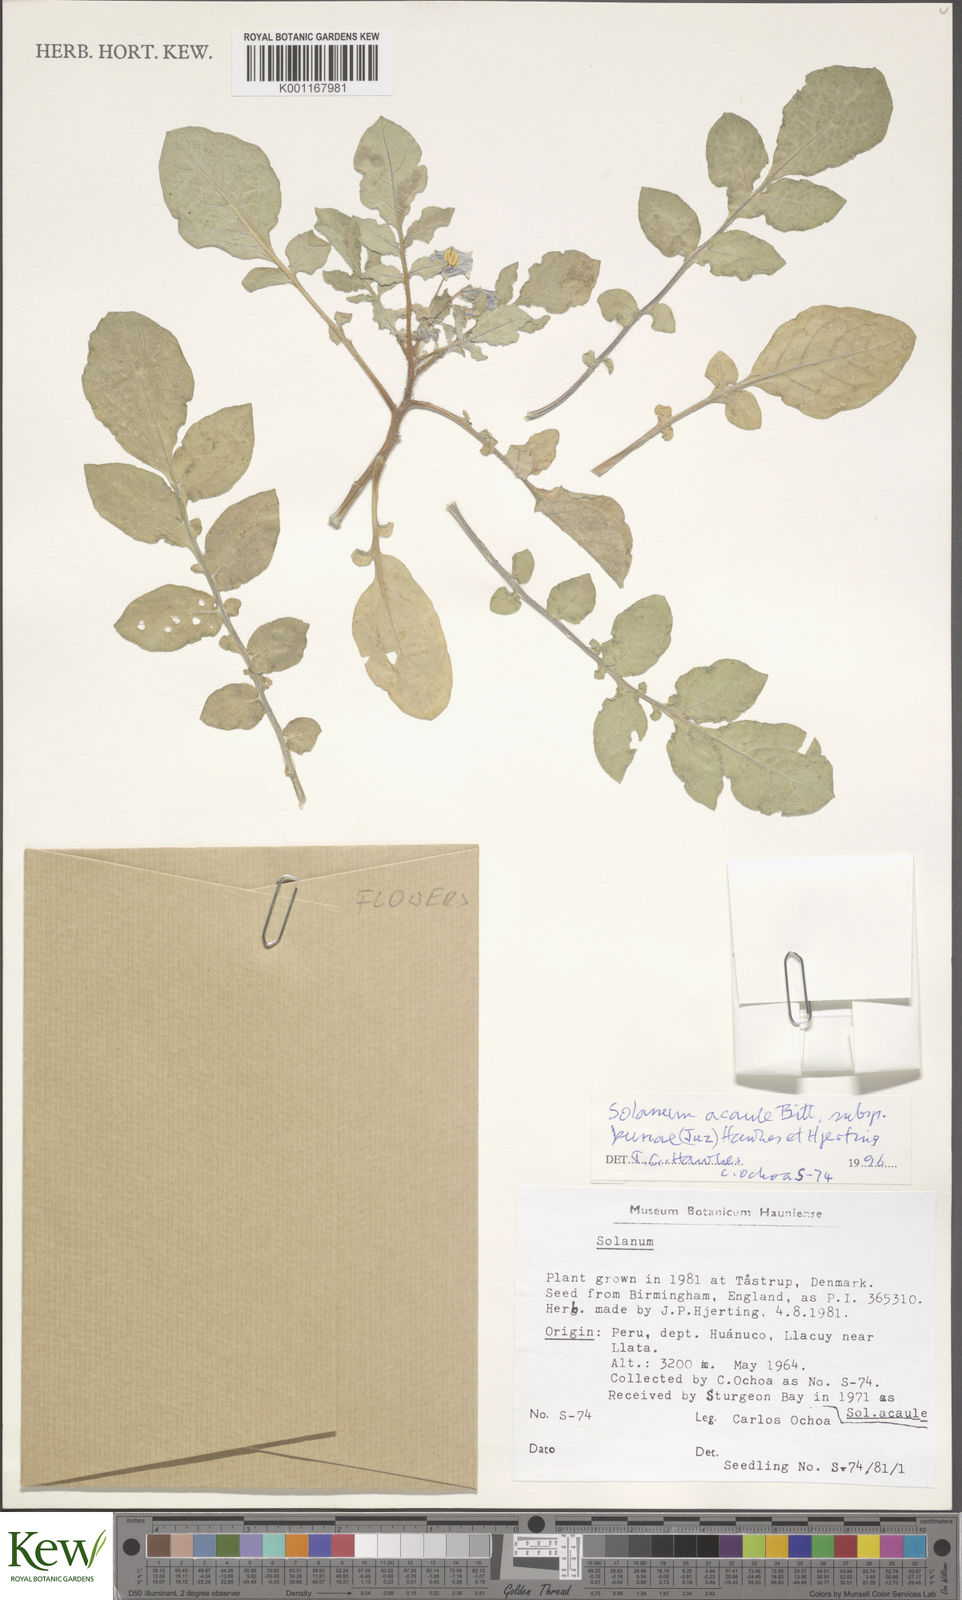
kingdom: Plantae
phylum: Tracheophyta
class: Magnoliopsida
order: Solanales
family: Solanaceae
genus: Solanum
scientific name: Solanum acaule
